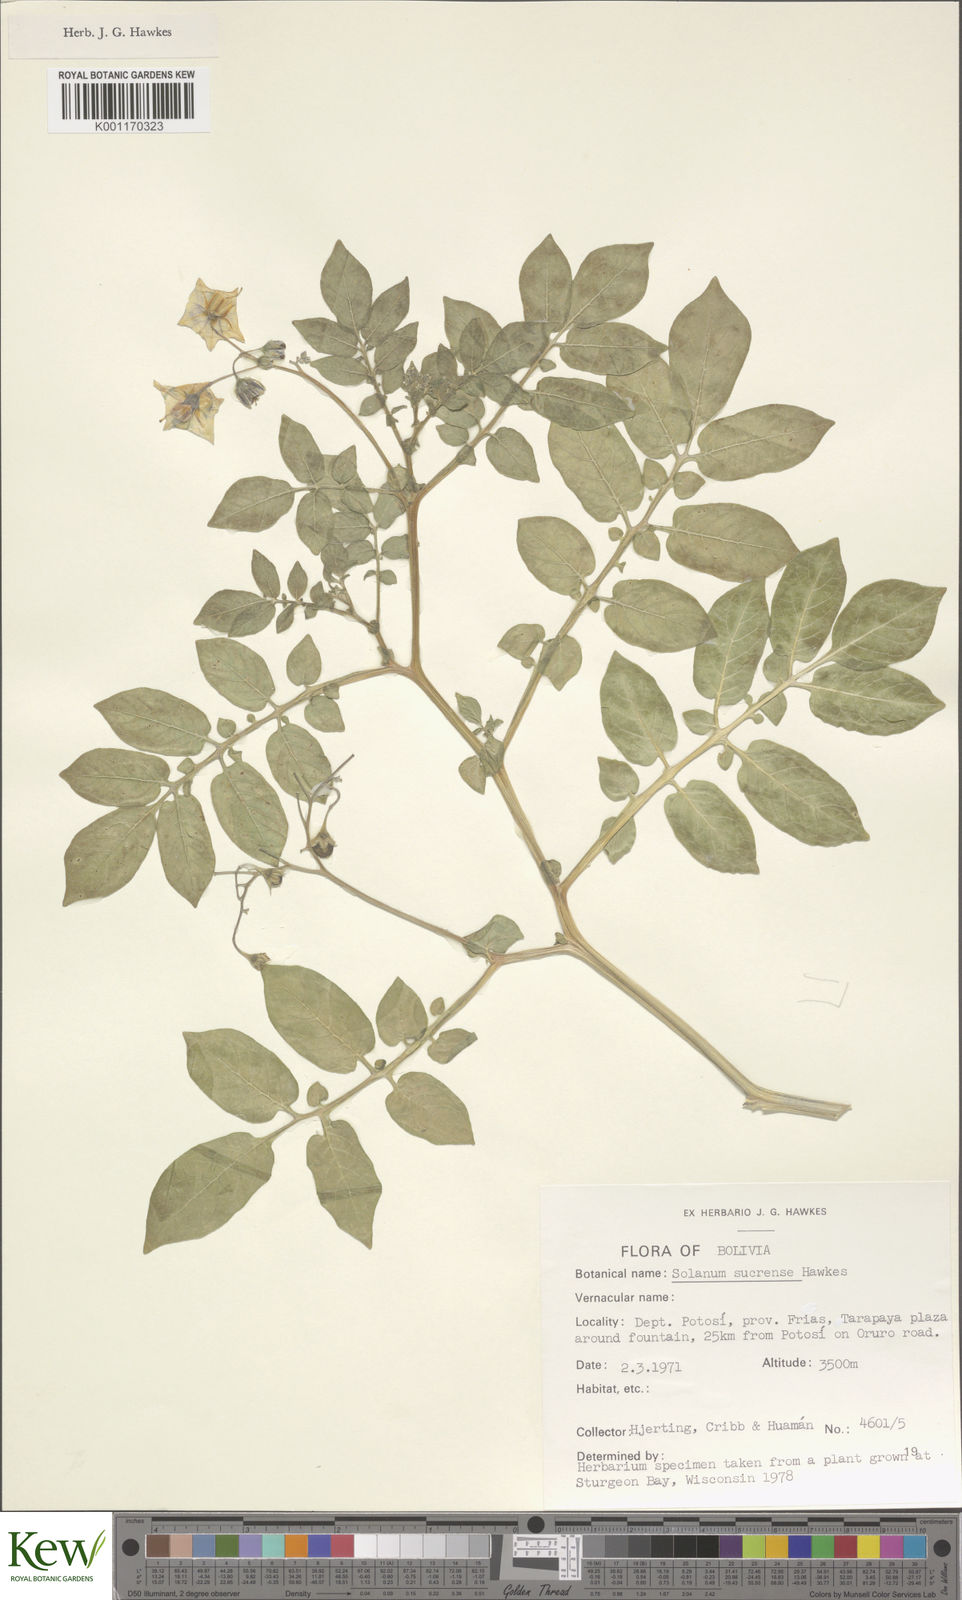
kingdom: Plantae
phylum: Tracheophyta
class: Magnoliopsida
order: Solanales
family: Solanaceae
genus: Solanum
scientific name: Solanum brevicaule
